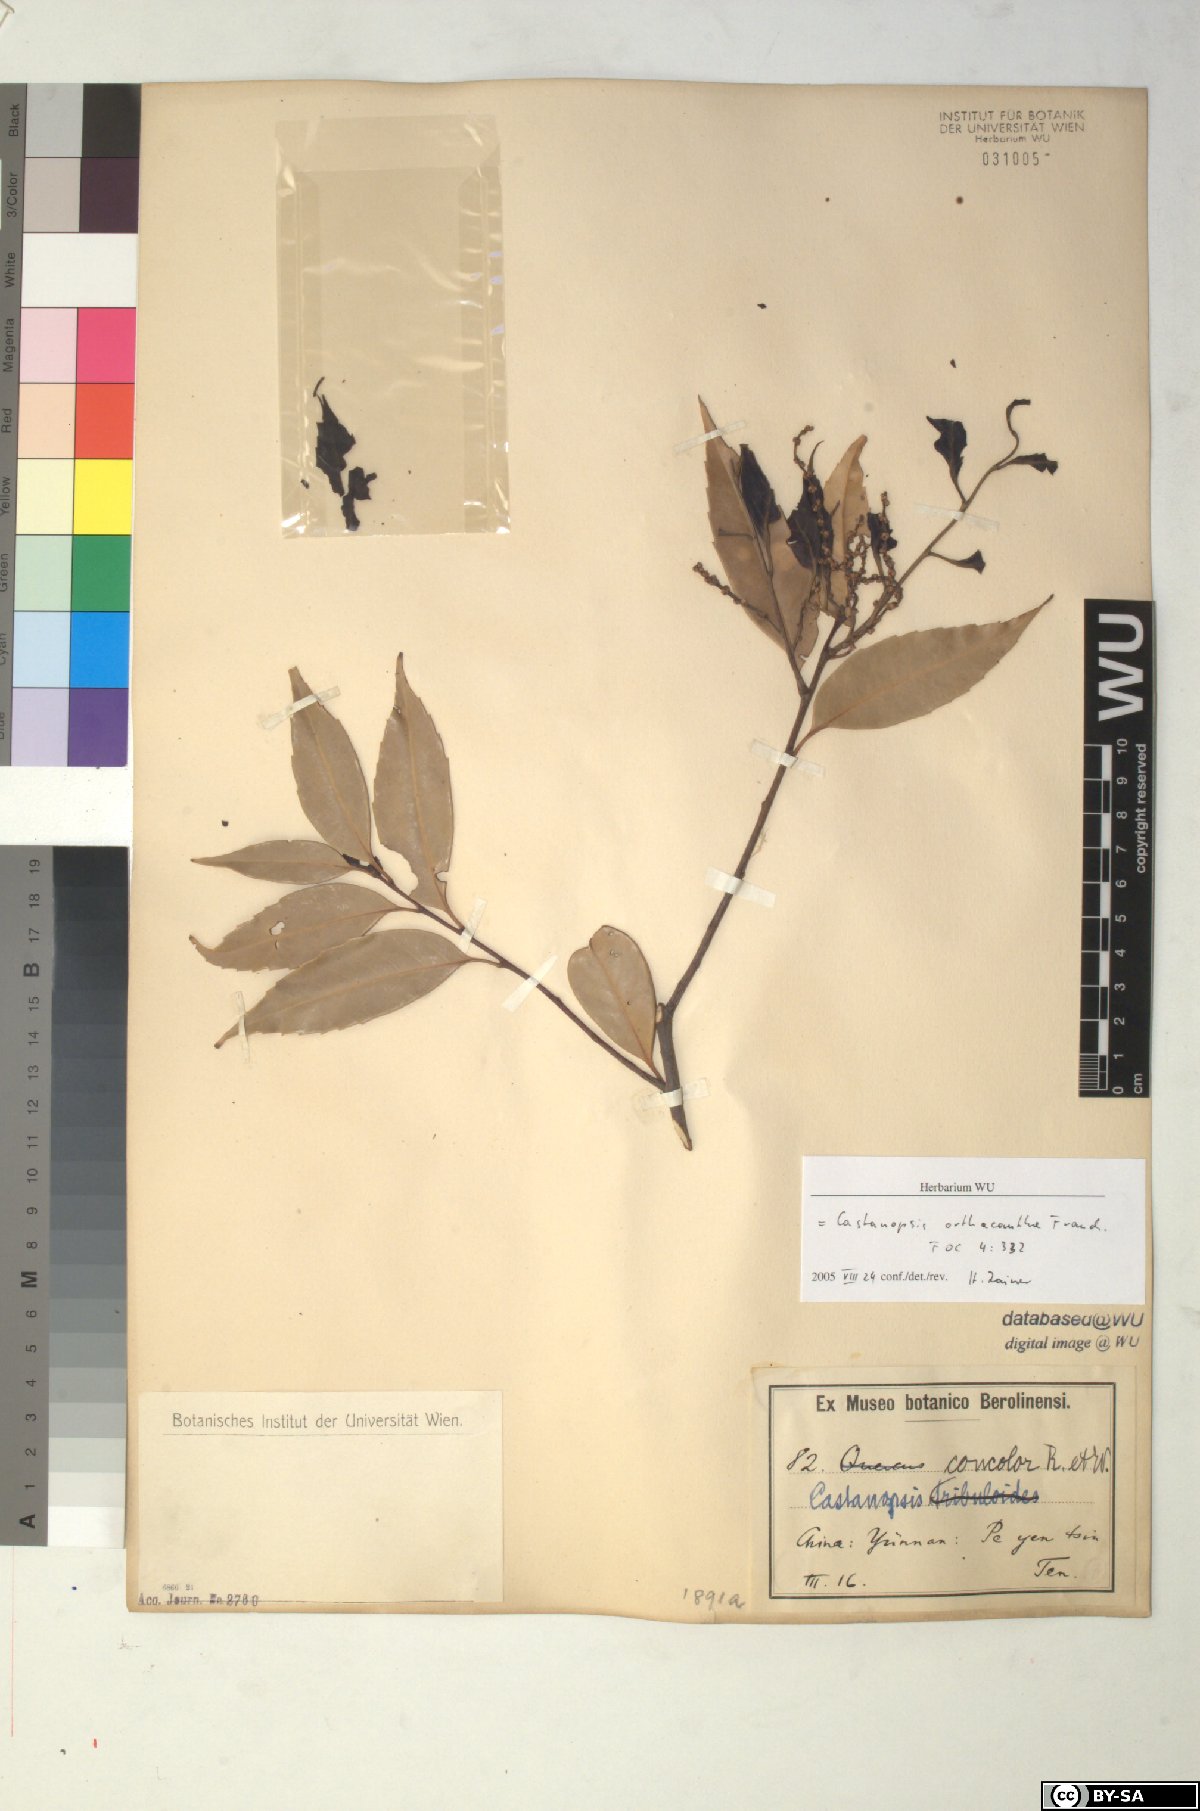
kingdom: Plantae
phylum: Tracheophyta
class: Magnoliopsida
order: Fagales
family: Fagaceae
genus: Castanopsis
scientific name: Castanopsis orthacantha
